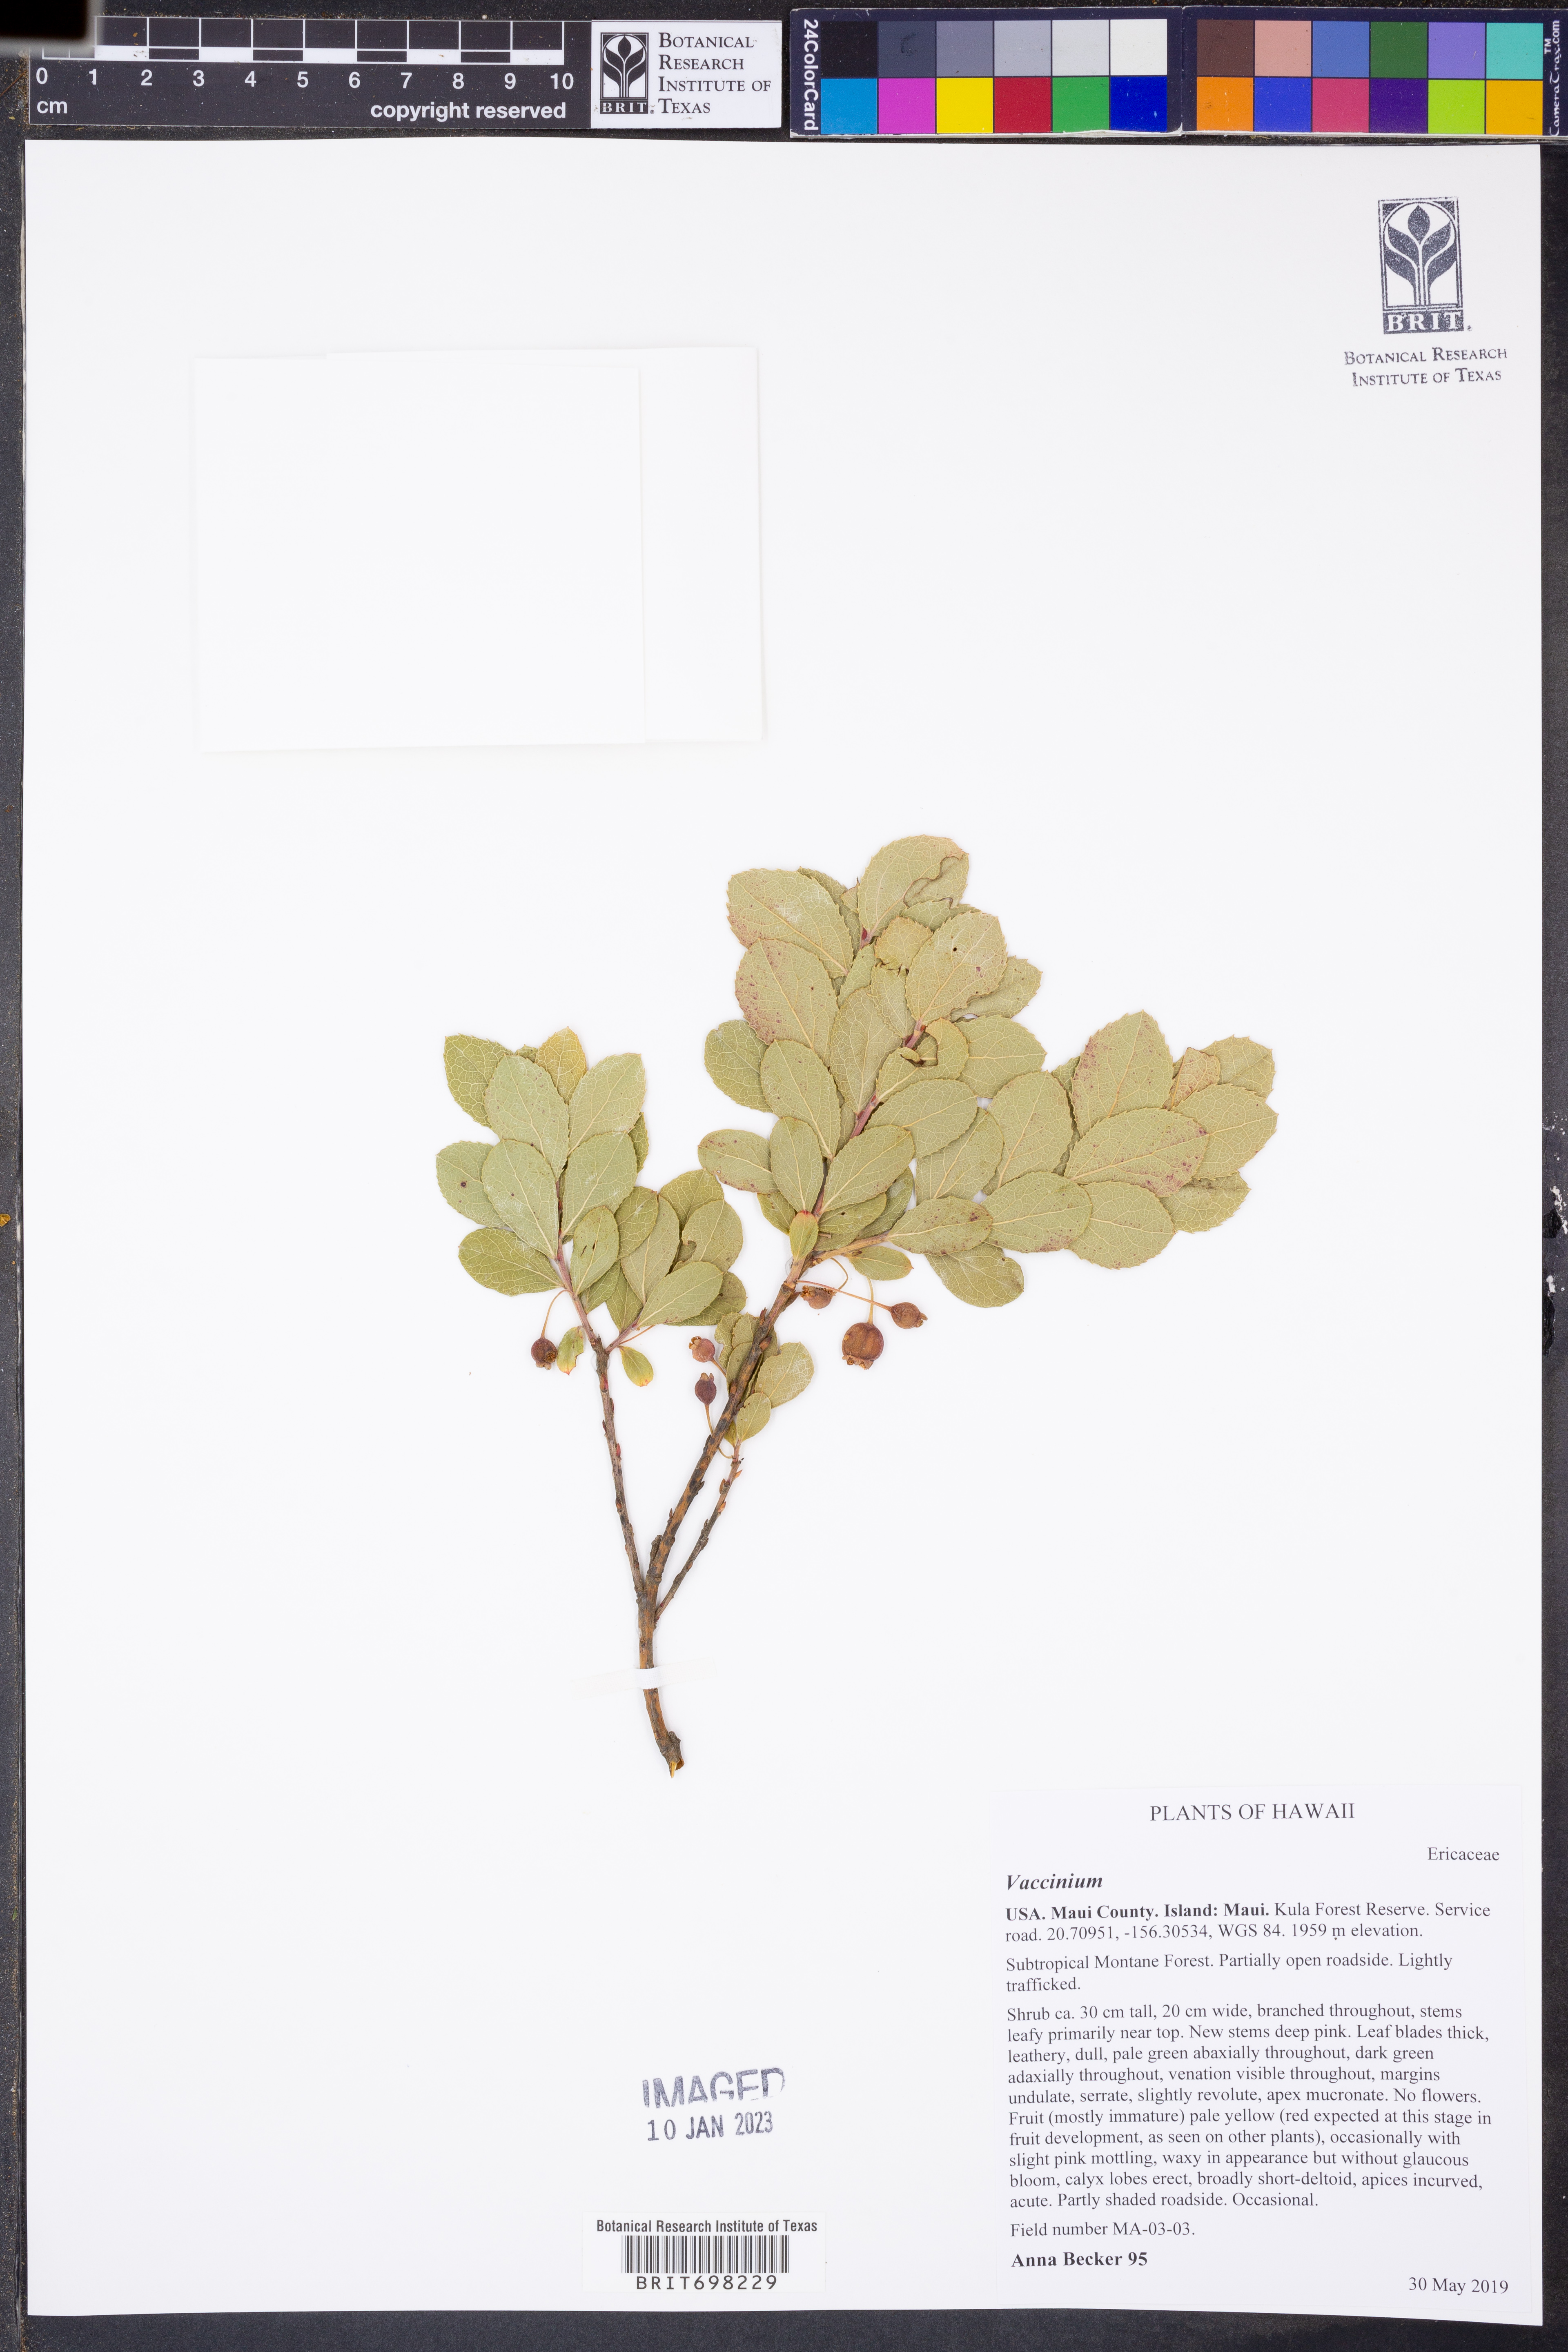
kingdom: Plantae
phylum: Tracheophyta
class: Magnoliopsida
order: Ericales
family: Ericaceae
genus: Vaccinium
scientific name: Vaccinium
